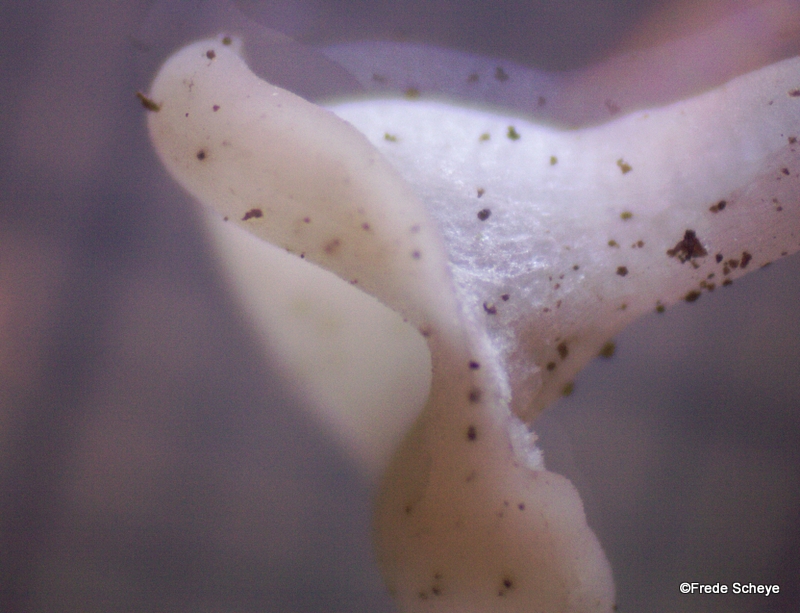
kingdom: Fungi
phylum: Ascomycota
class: Leotiomycetes
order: Helotiales
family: Tricladiaceae
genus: Cudoniella
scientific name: Cudoniella acicularis
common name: ege-dyndskive
